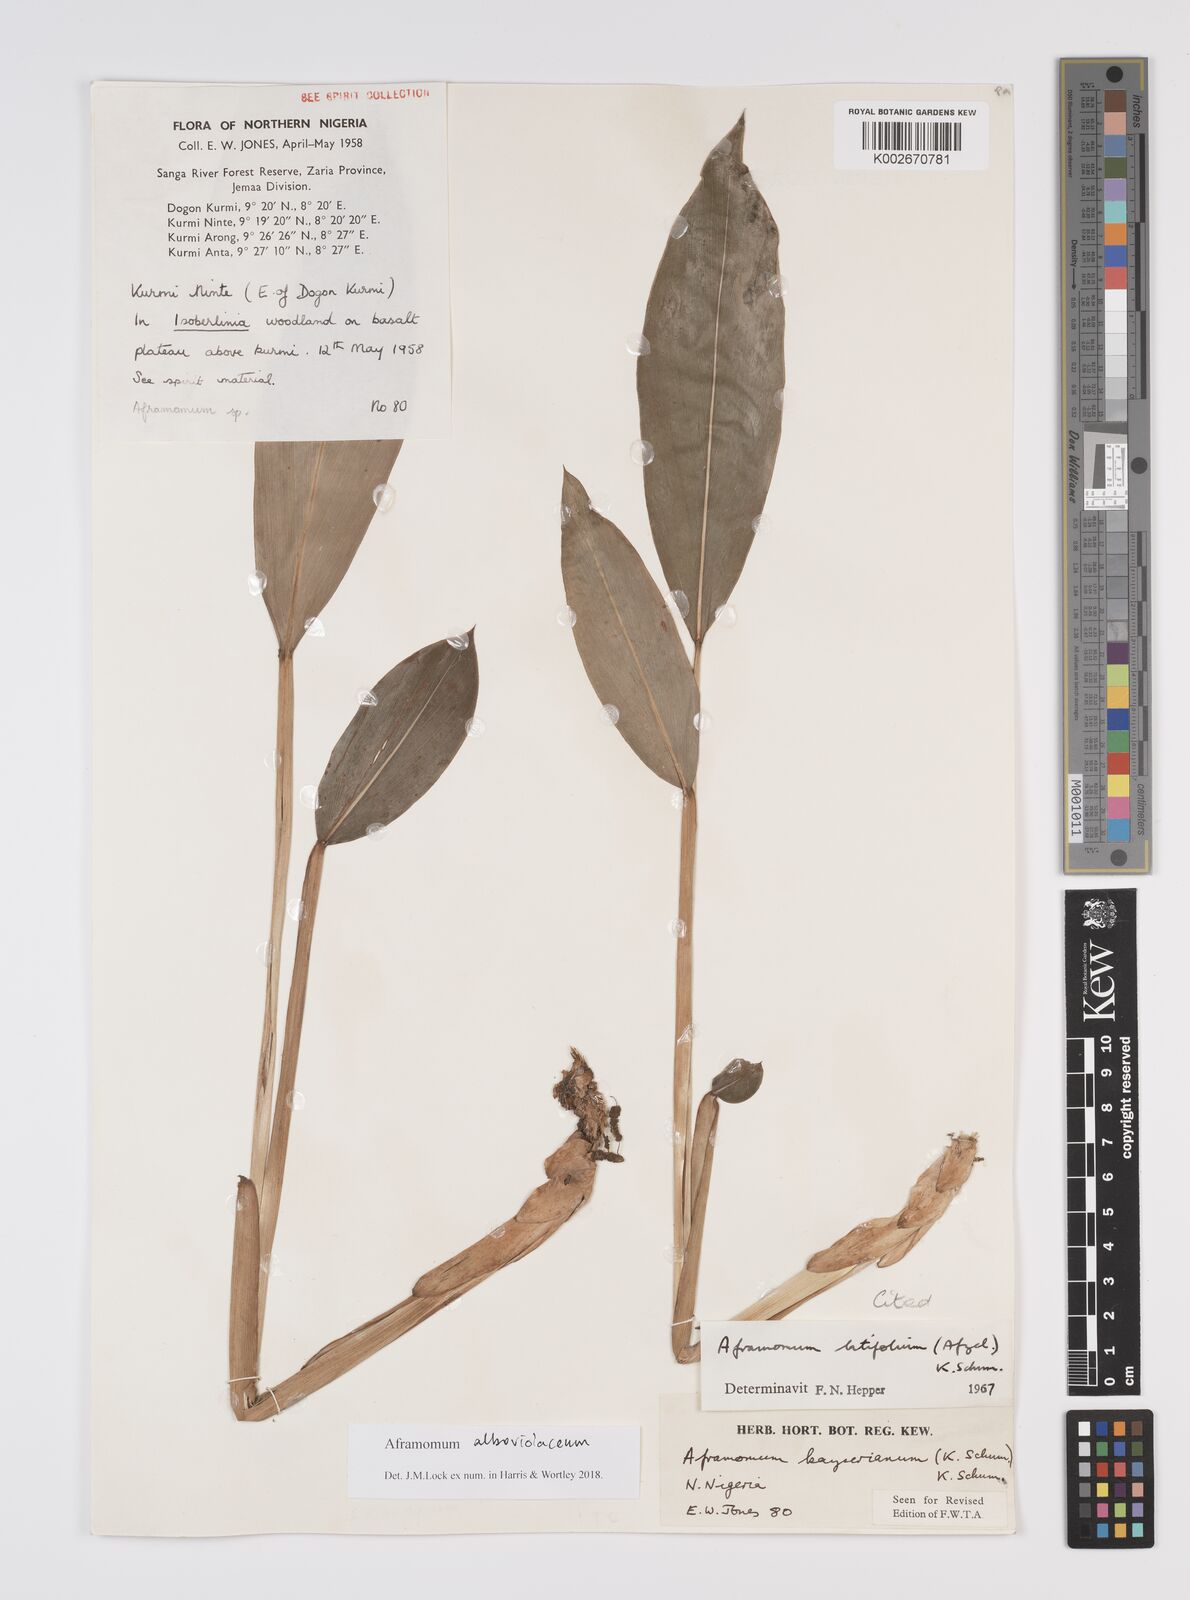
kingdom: Plantae
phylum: Tracheophyta
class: Liliopsida
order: Zingiberales
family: Zingiberaceae
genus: Aframomum
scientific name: Aframomum alboviolaceum
